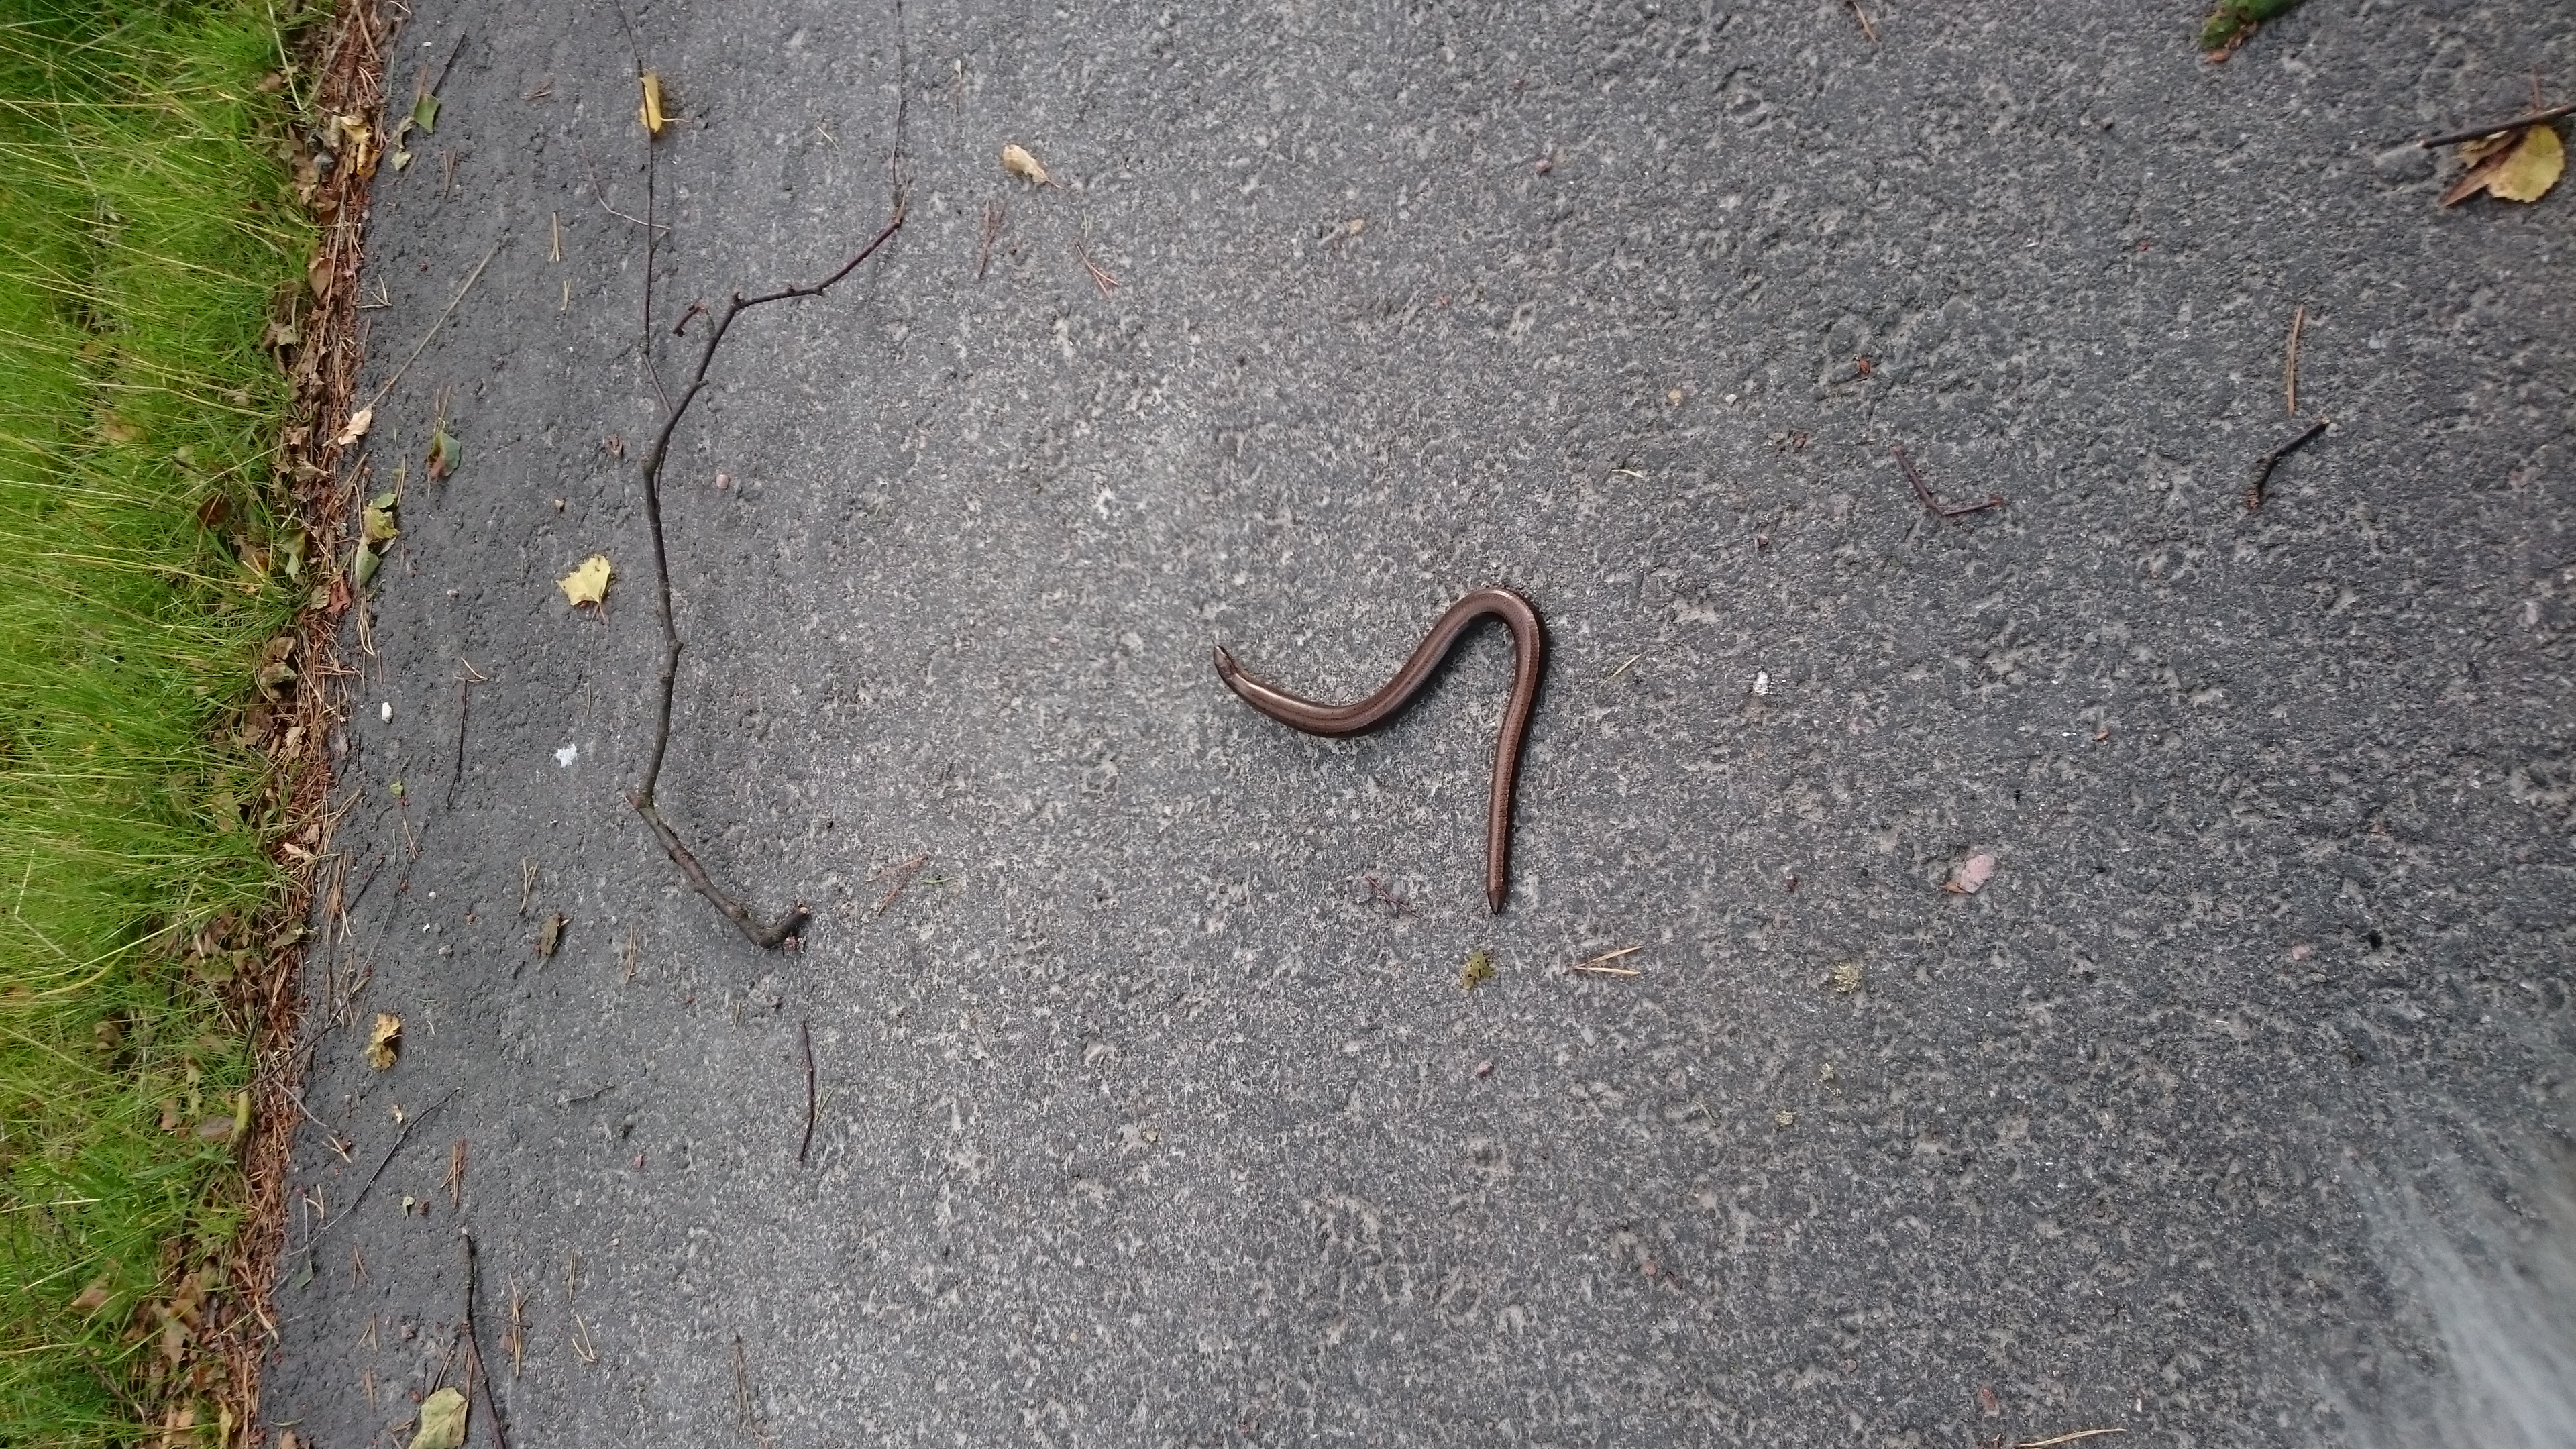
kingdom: Animalia
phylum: Chordata
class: Squamata
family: Anguidae
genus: Anguis
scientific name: Anguis colchica
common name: Slow worm
